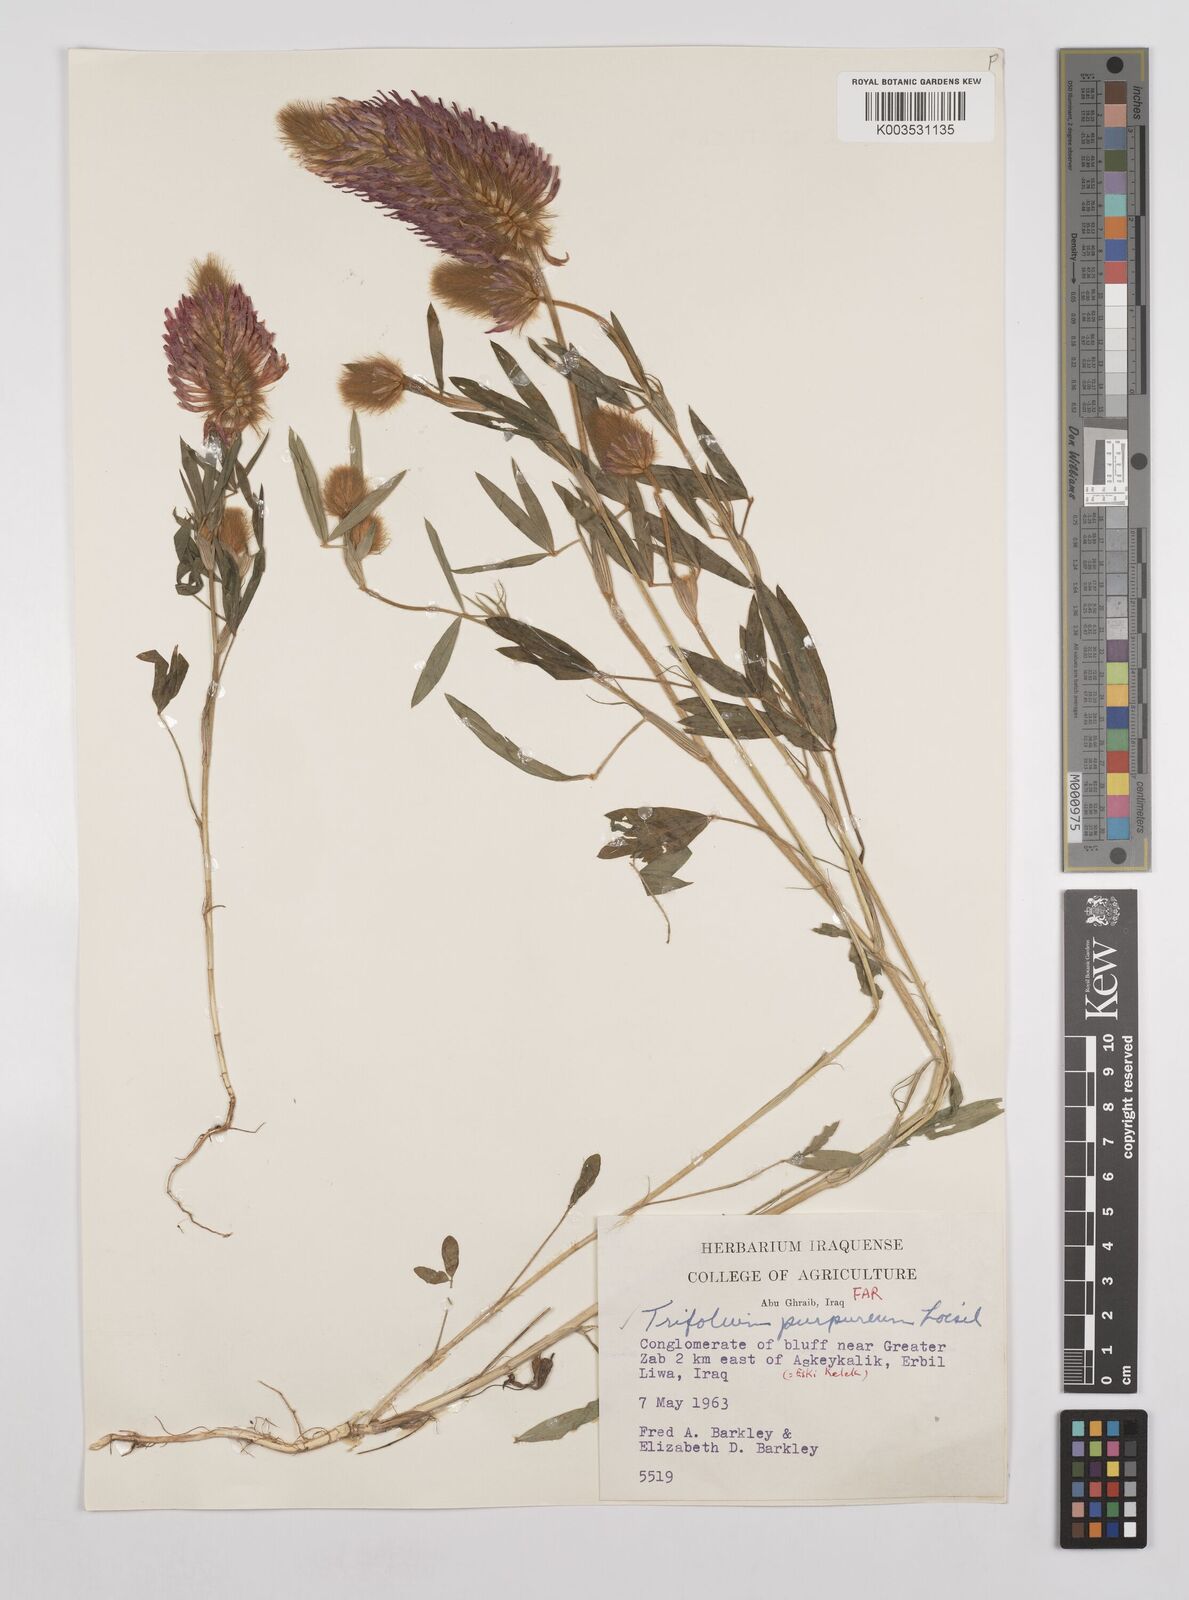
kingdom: Plantae
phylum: Tracheophyta
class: Magnoliopsida
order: Fabales
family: Fabaceae
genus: Trifolium
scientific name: Trifolium purpureum
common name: Purple clover
